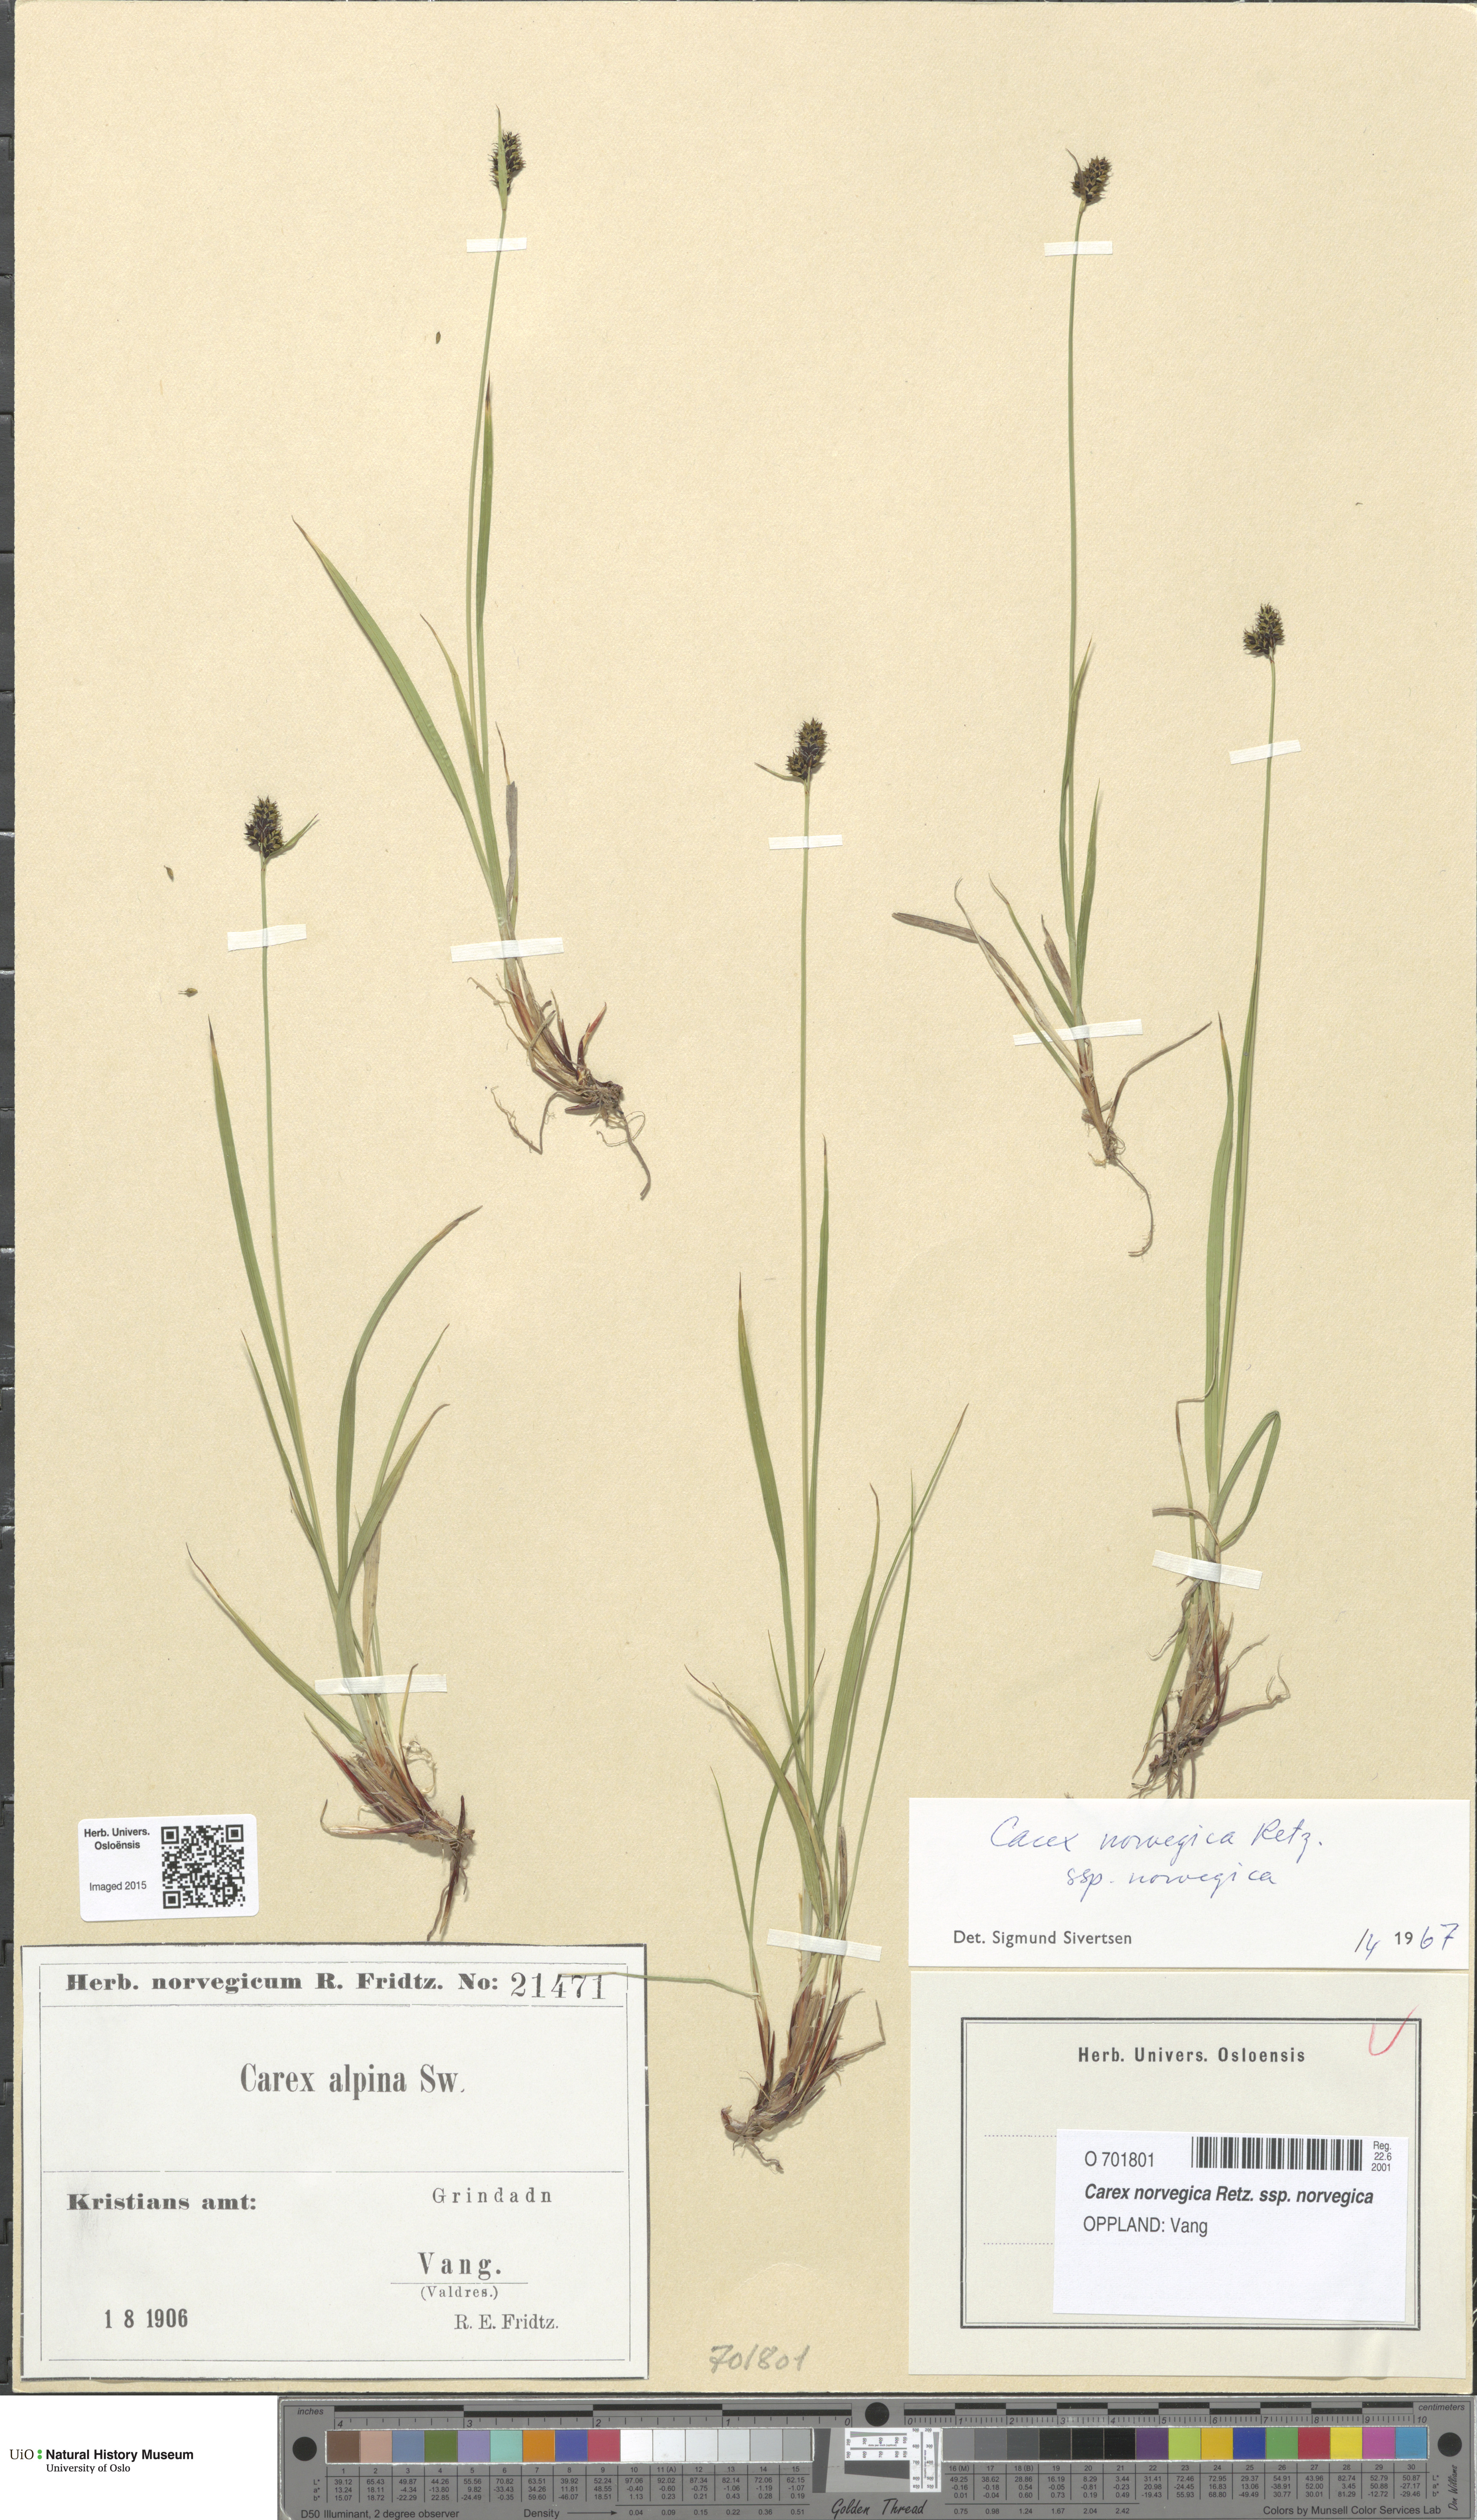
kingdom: Plantae
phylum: Tracheophyta
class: Liliopsida
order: Poales
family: Cyperaceae
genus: Carex
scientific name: Carex norvegica
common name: Close-headed alpine-sedge
